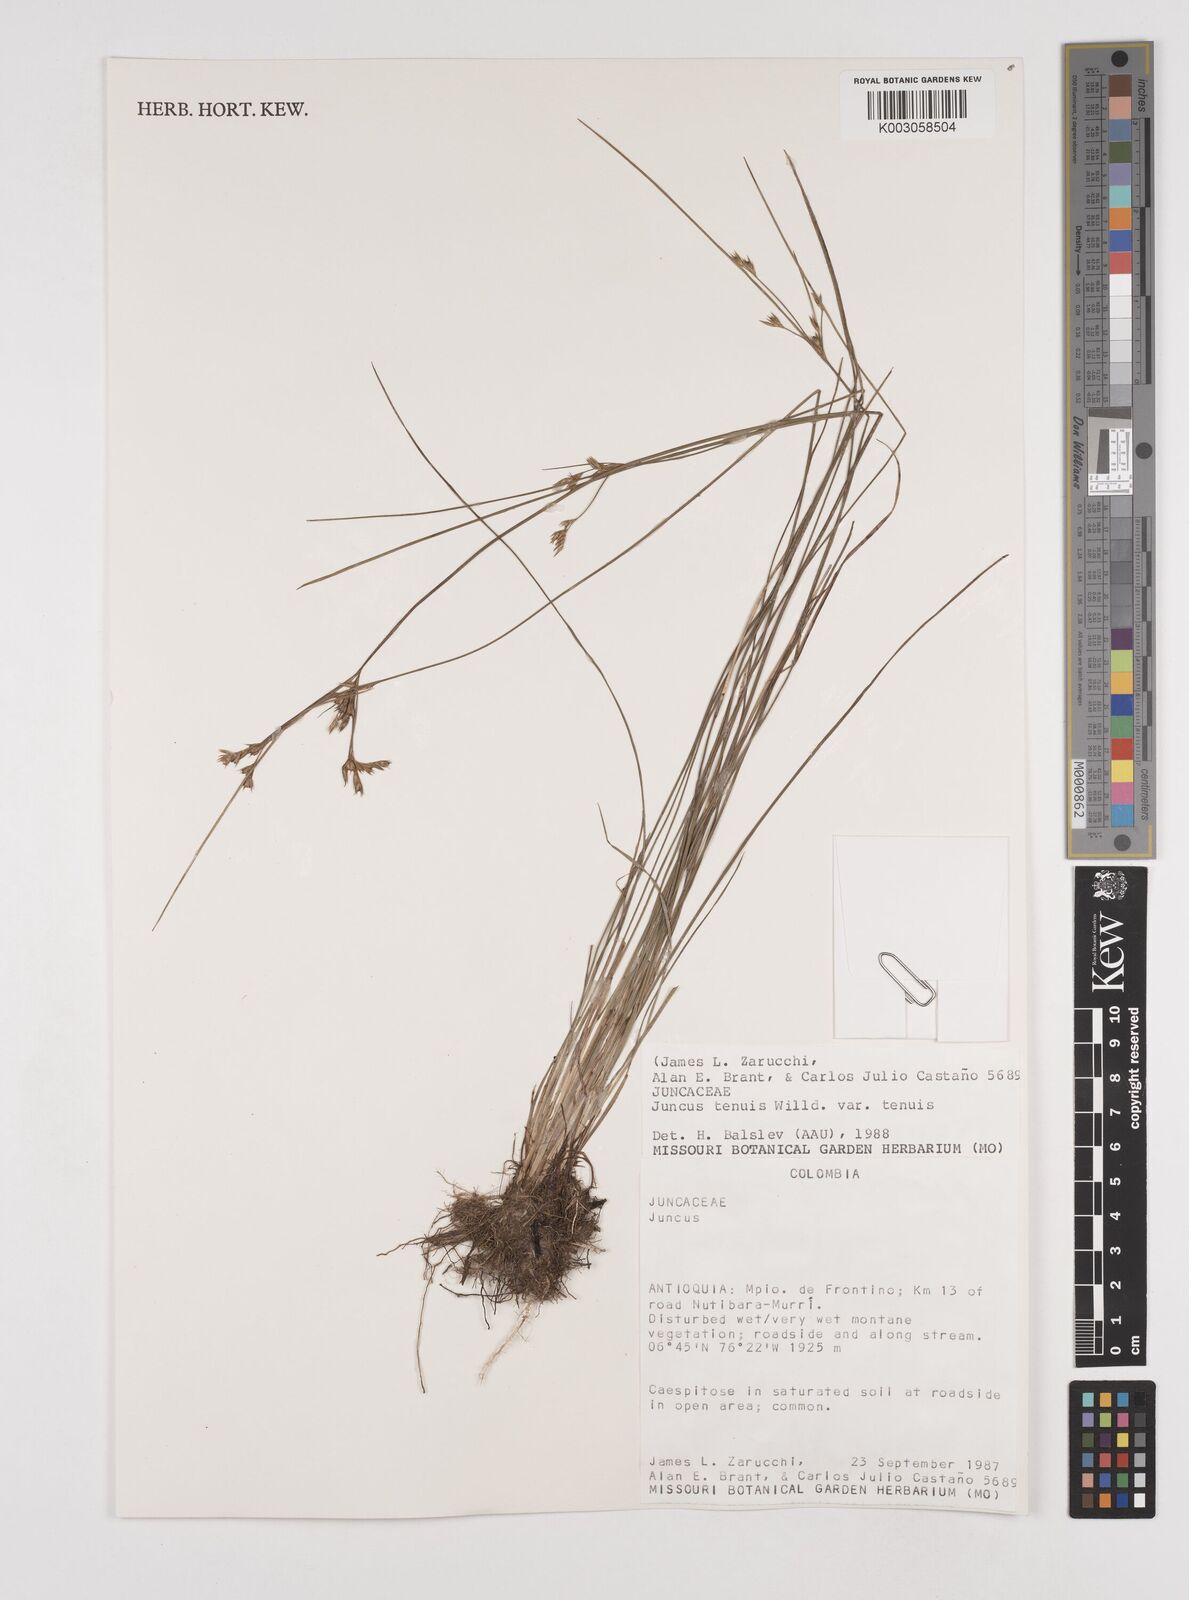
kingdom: Plantae
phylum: Tracheophyta
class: Liliopsida
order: Poales
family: Juncaceae
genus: Juncus
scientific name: Juncus tenuis
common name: Slender rush
